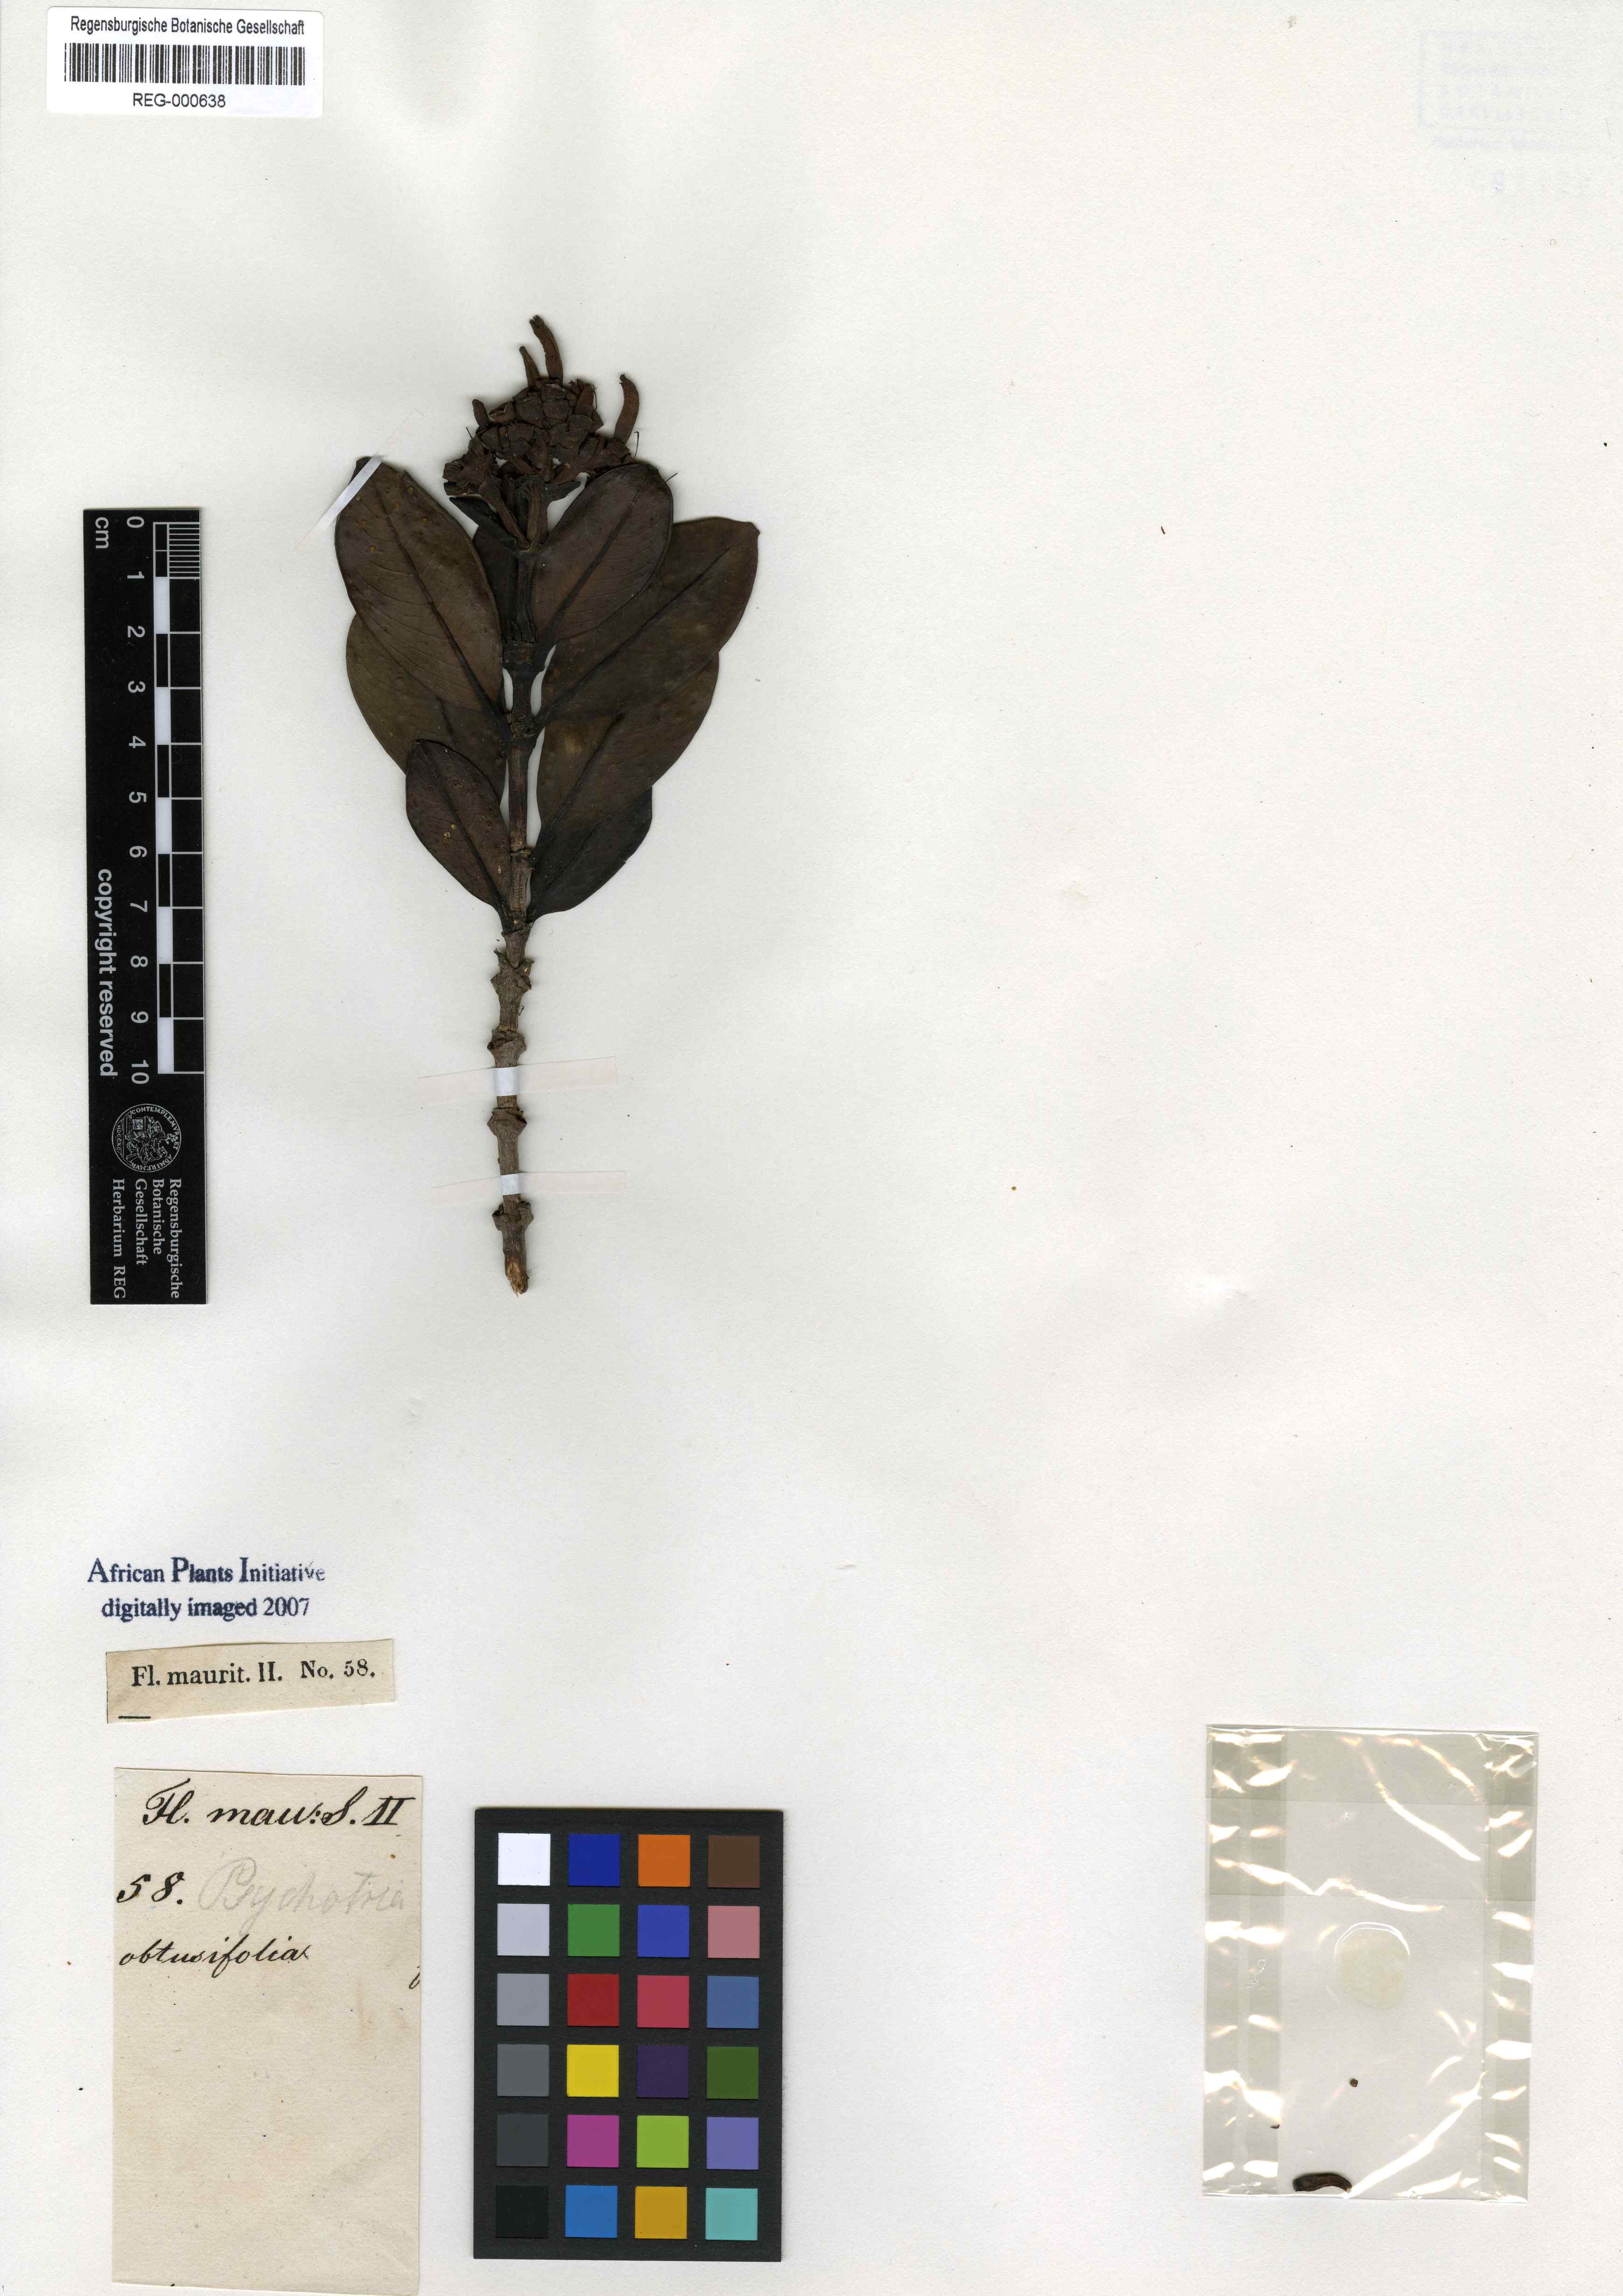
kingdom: Plantae
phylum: Tracheophyta
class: Magnoliopsida
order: Gentianales
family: Rubiaceae
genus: Gaertnera
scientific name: Gaertnera edentata
